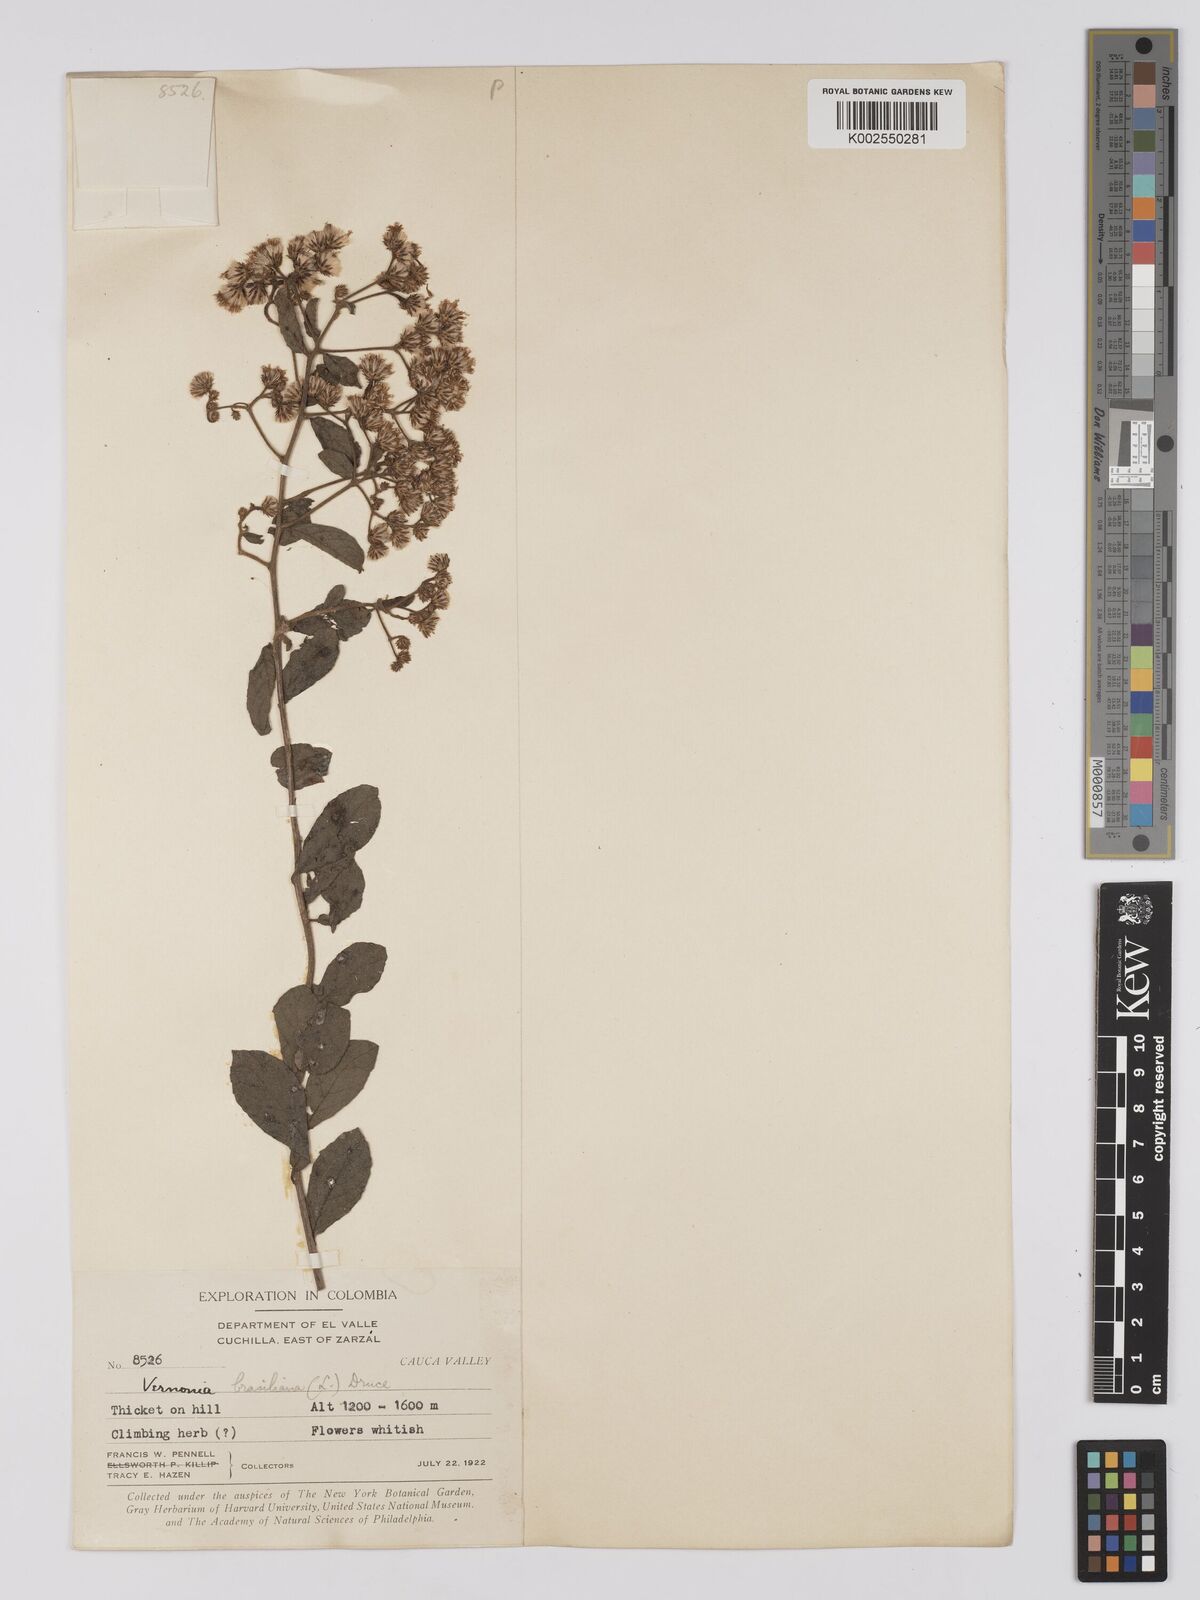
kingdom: Plantae
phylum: Tracheophyta
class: Magnoliopsida
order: Asterales
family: Asteraceae
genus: Vernonanthura
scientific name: Vernonanthura brasiliana
